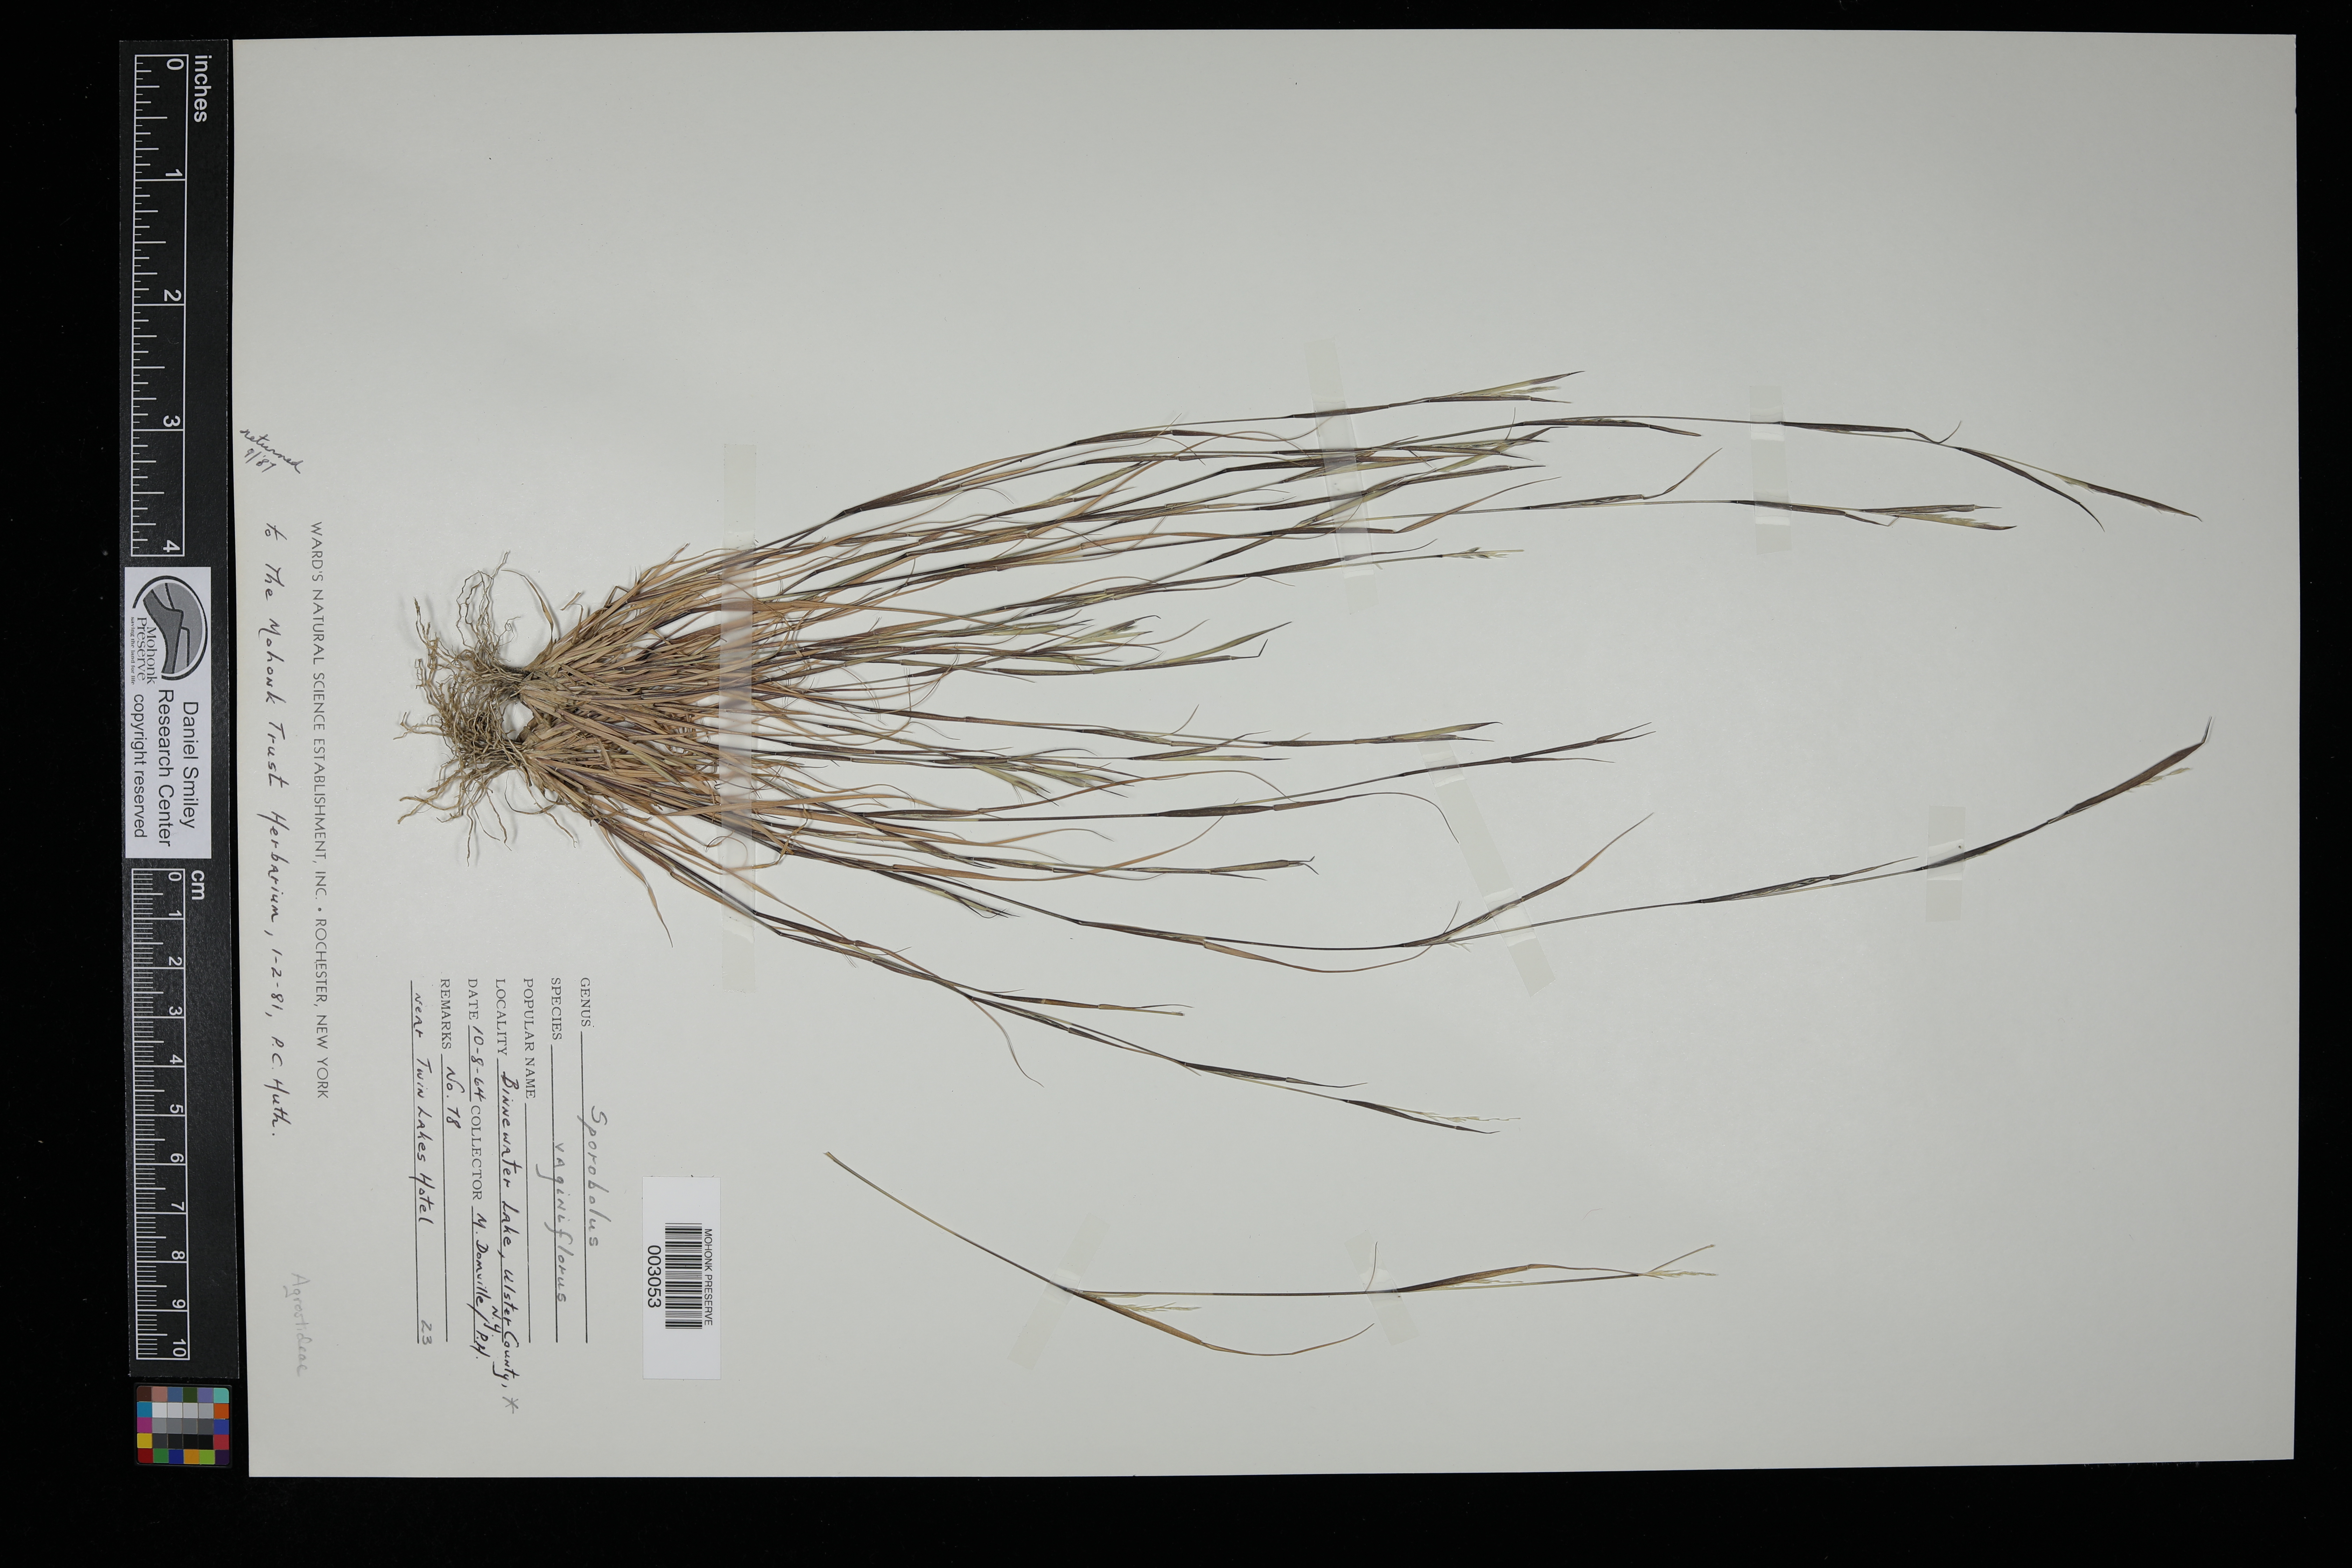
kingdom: Plantae
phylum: Tracheophyta
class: Liliopsida
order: Poales
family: Poaceae
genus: Sporobolus
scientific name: Sporobolus vaginiflorus
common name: Poverty dropseed
